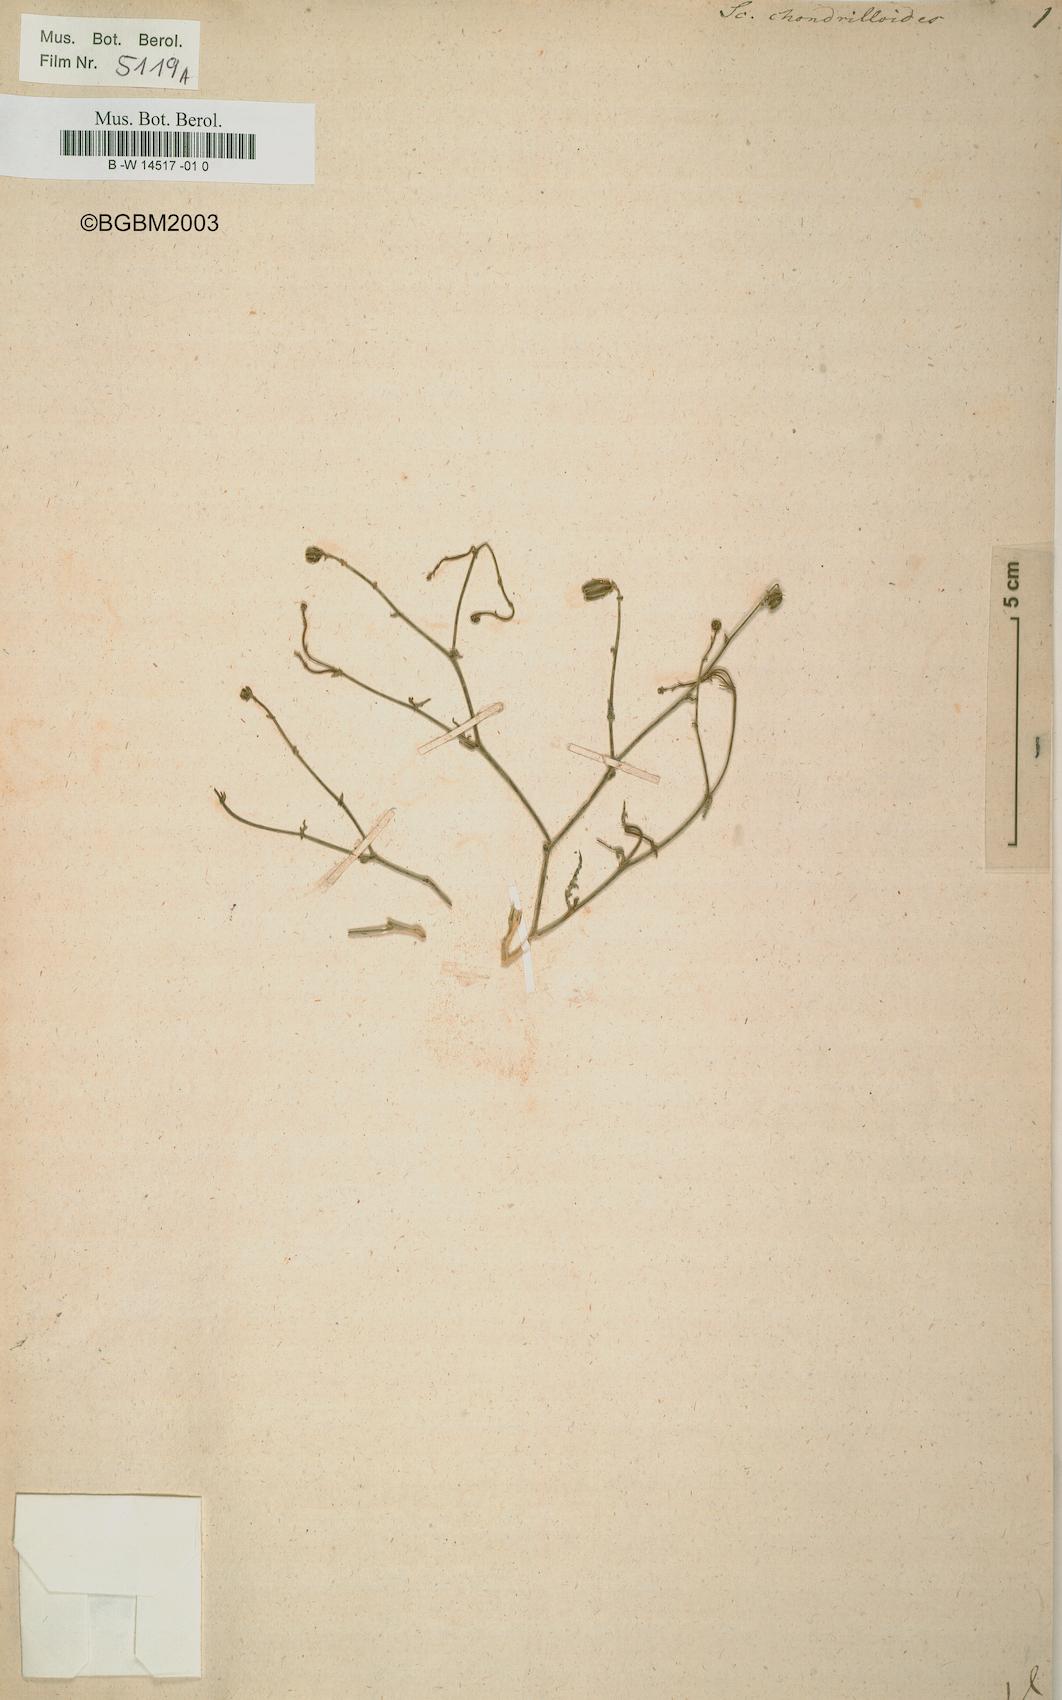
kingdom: Plantae
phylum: Tracheophyta
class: Magnoliopsida
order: Asterales
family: Asteraceae
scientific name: Asteraceae
